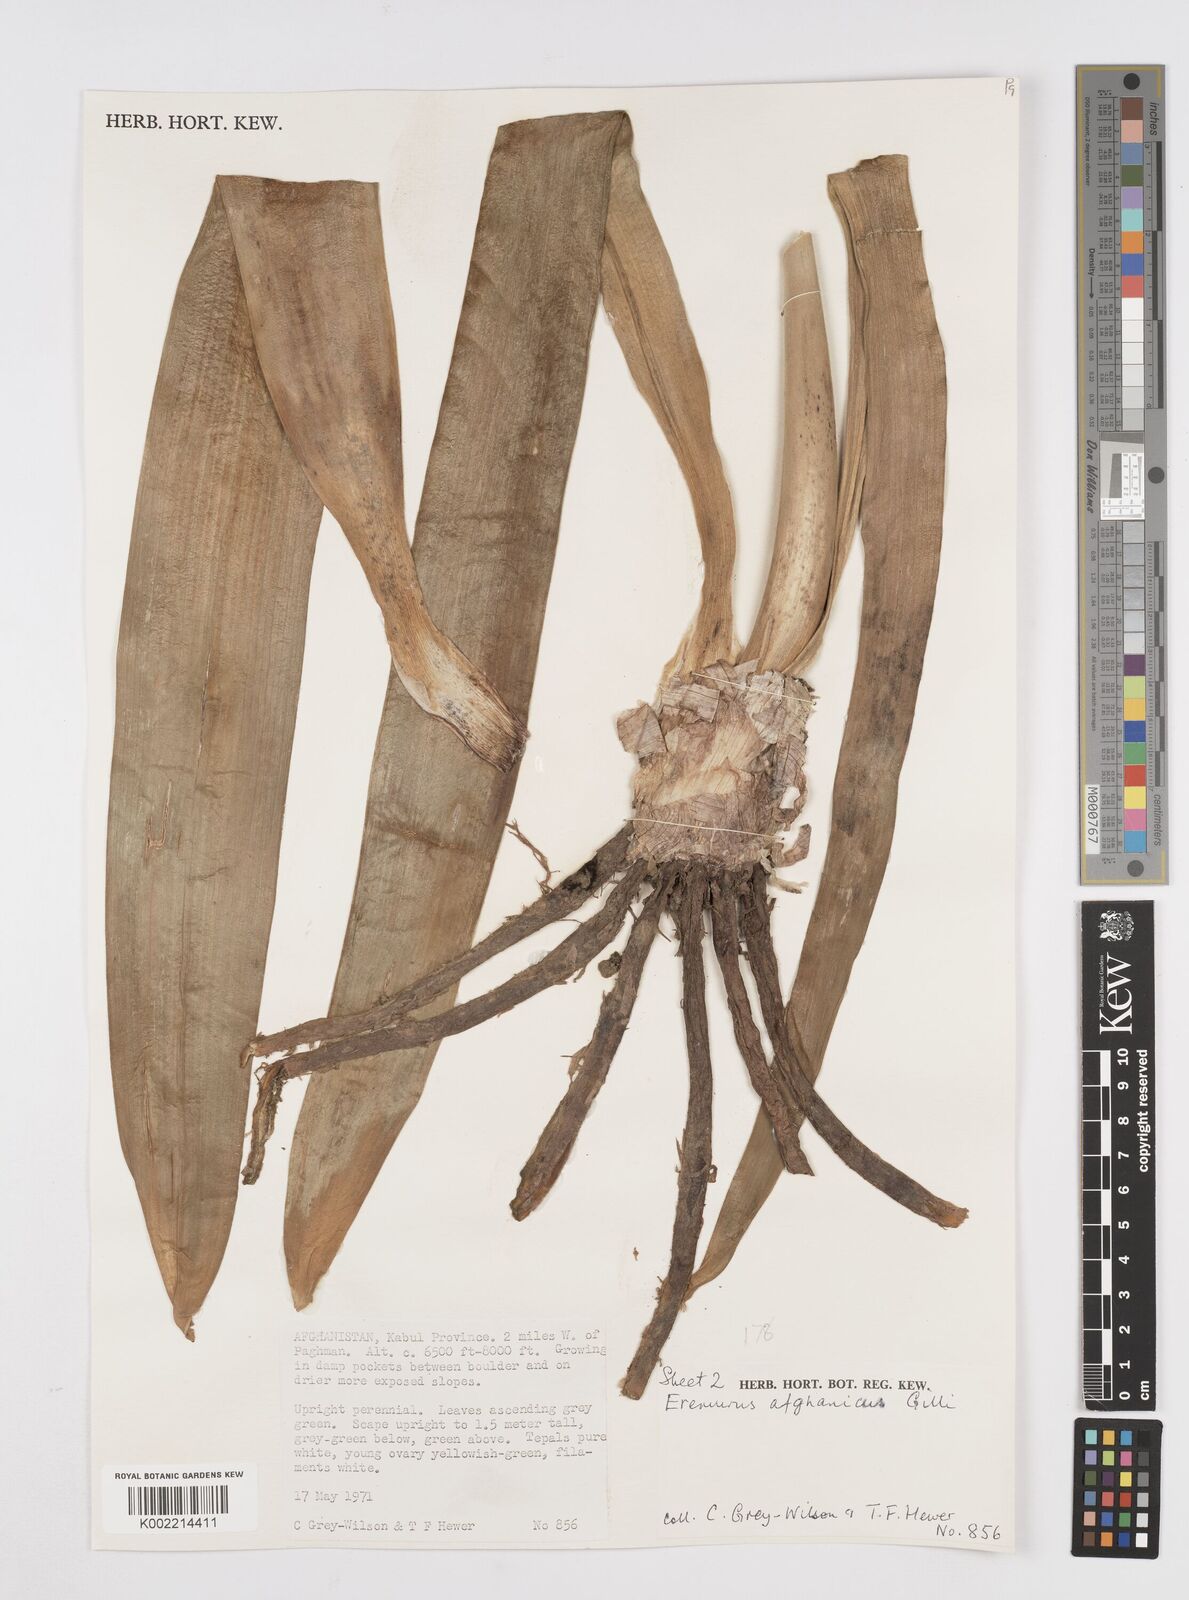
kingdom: Plantae
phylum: Tracheophyta
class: Liliopsida
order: Asparagales
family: Asphodelaceae
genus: Eremurus
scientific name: Eremurus afghanicus
